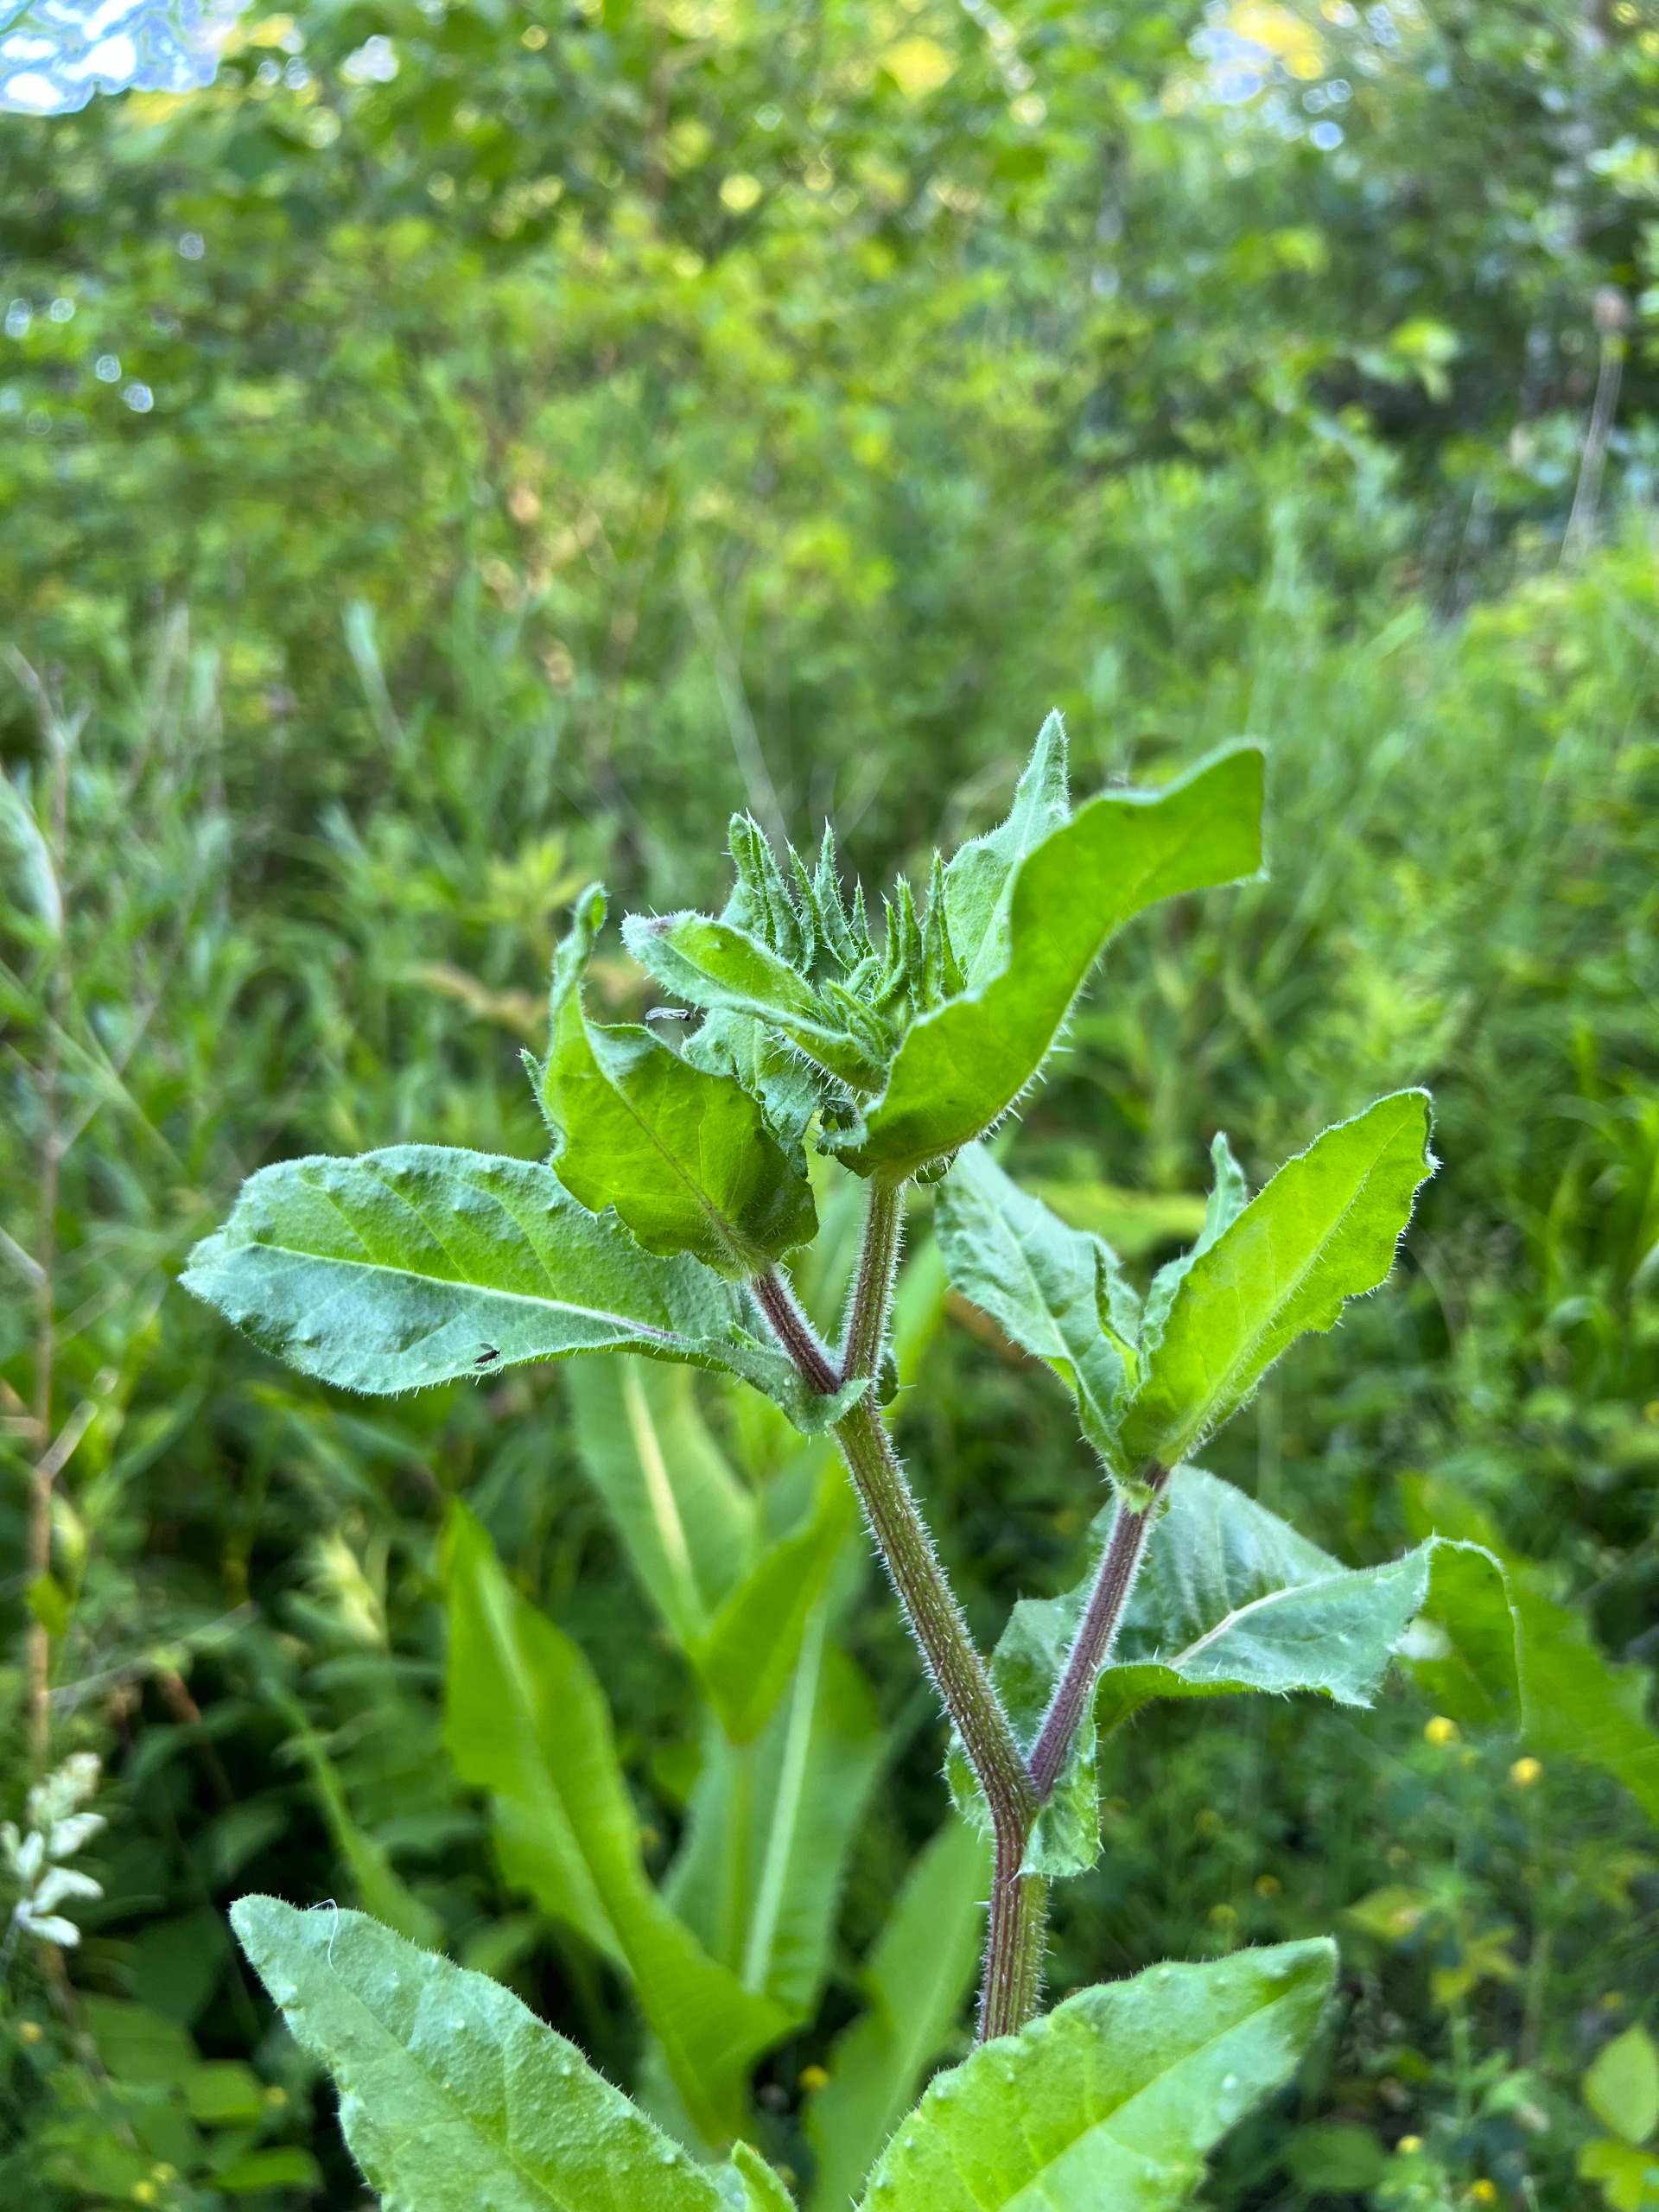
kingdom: Plantae
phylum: Tracheophyta
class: Magnoliopsida
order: Asterales
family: Asteraceae
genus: Helminthotheca
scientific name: Helminthotheca echioides
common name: Vingekurv
